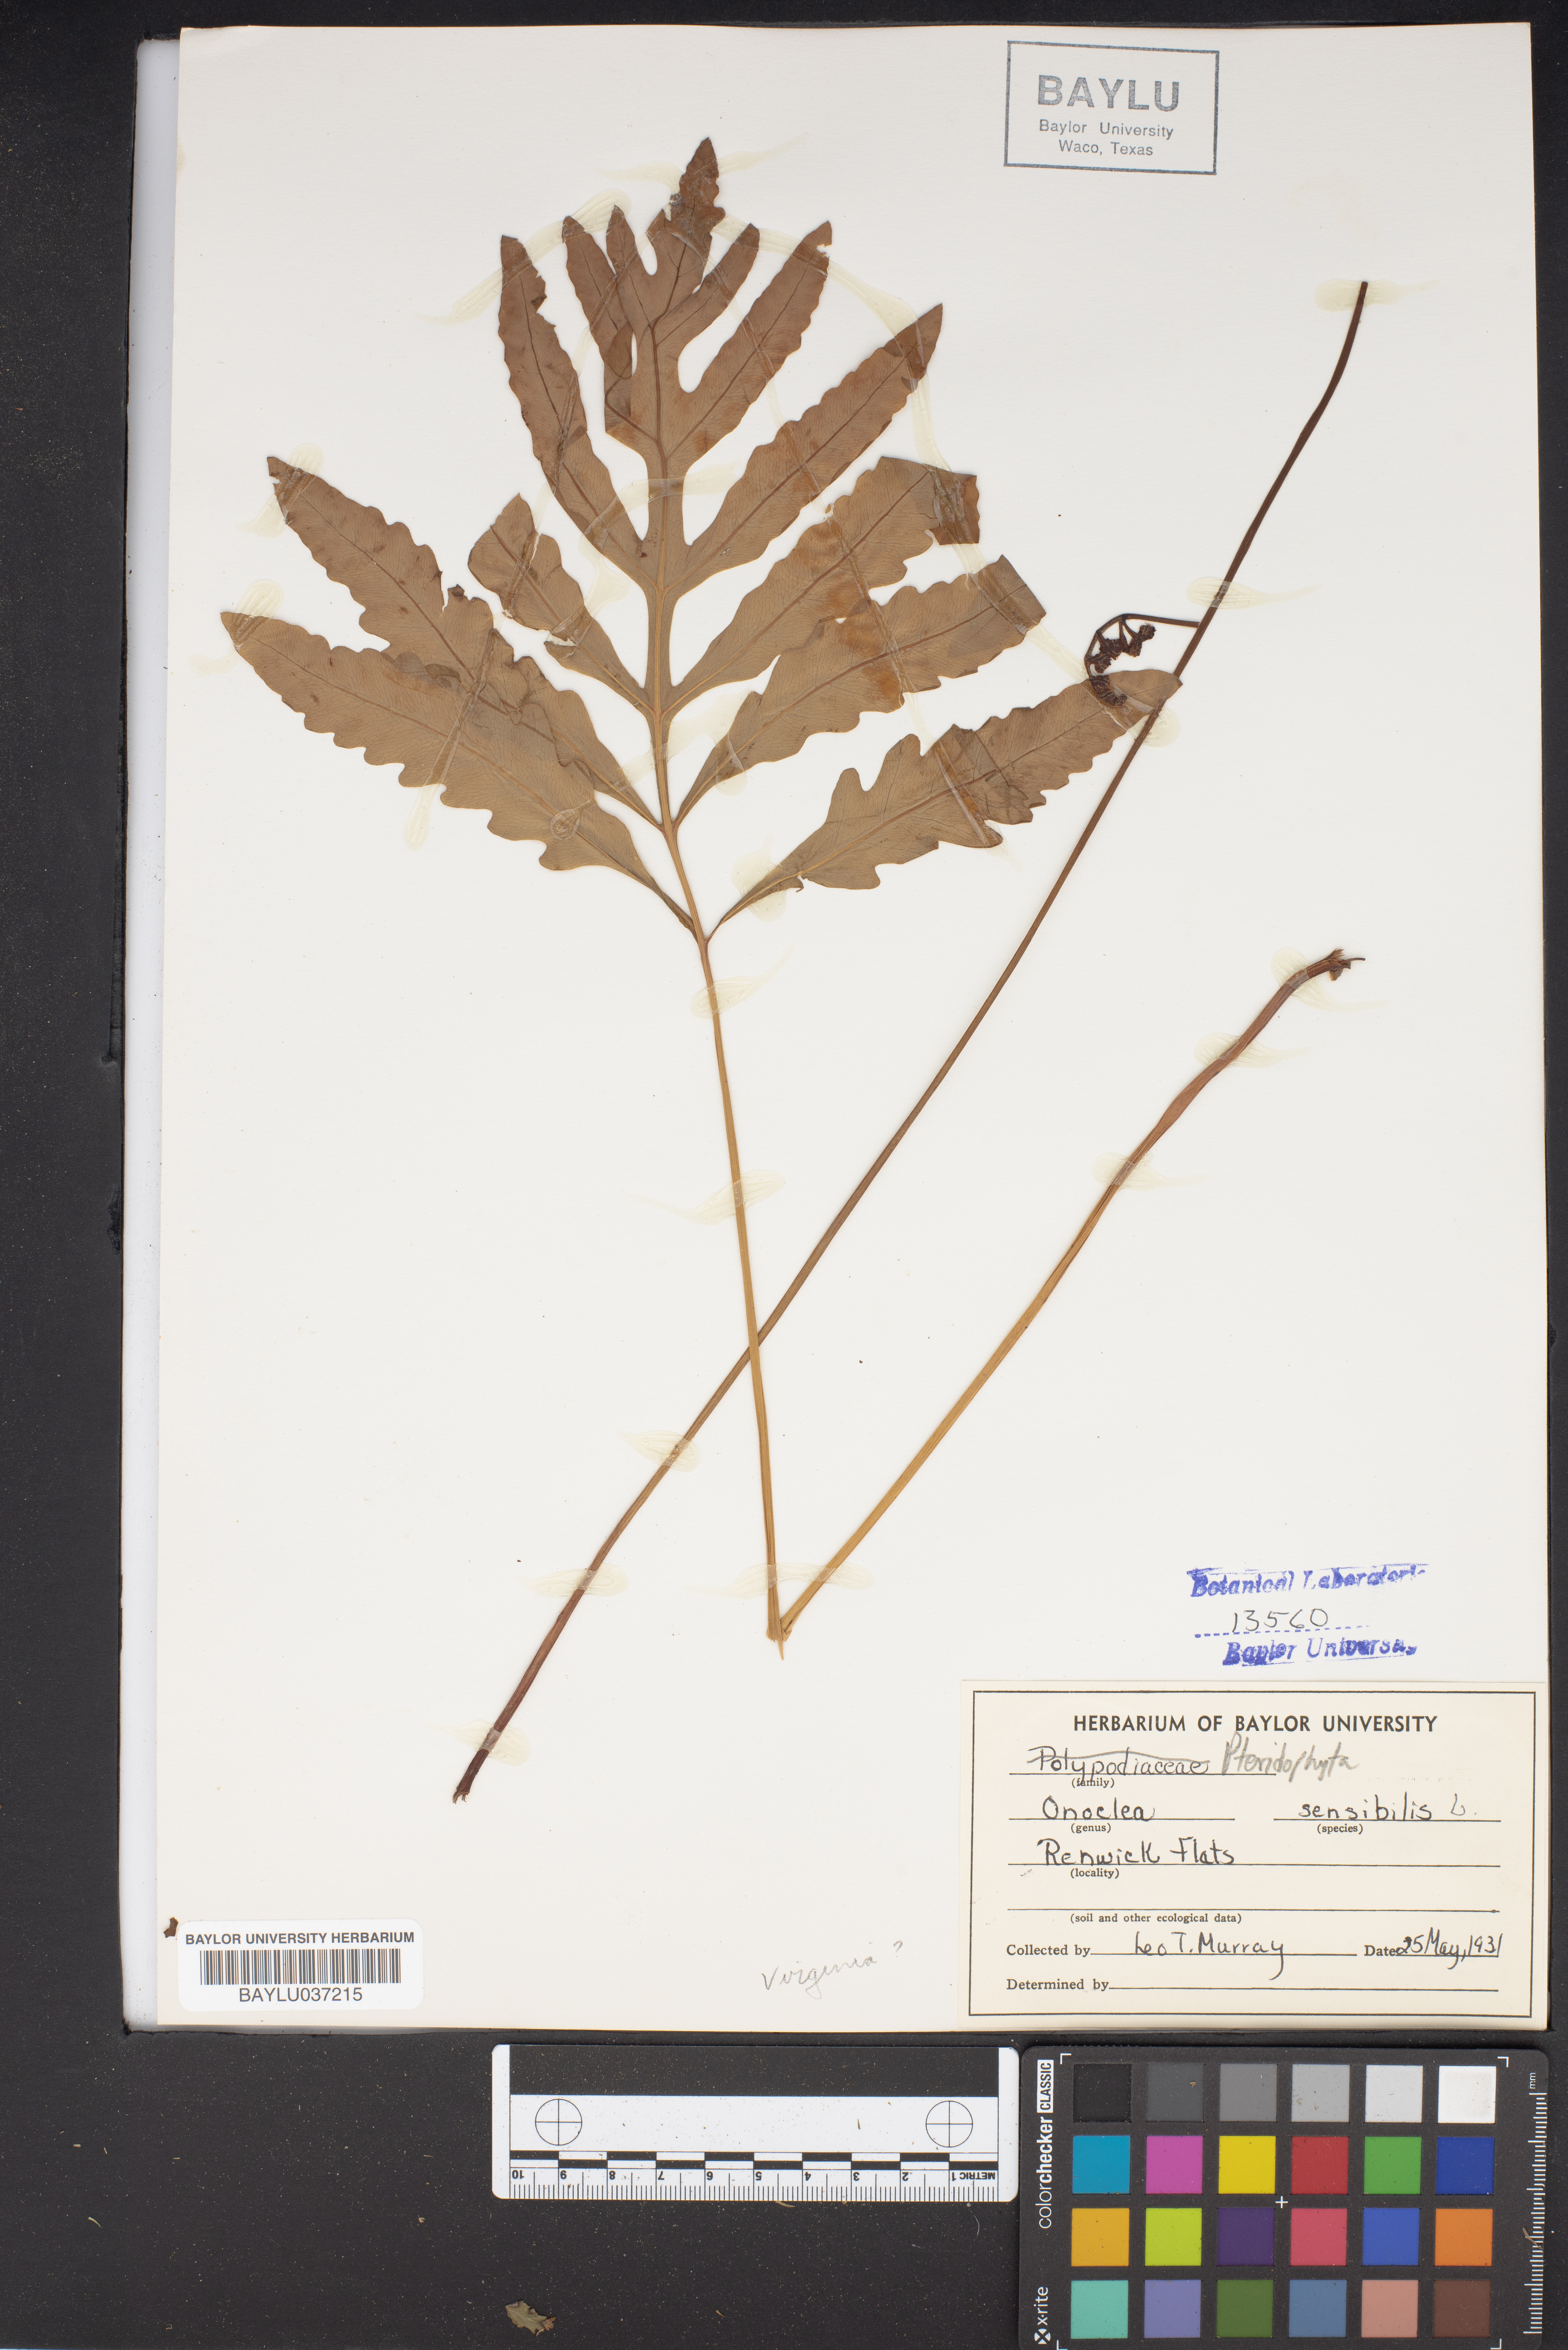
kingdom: Plantae
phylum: Tracheophyta
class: Polypodiopsida
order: Polypodiales
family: Onocleaceae
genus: Onoclea
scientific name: Onoclea sensibilis
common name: Sensitive fern
